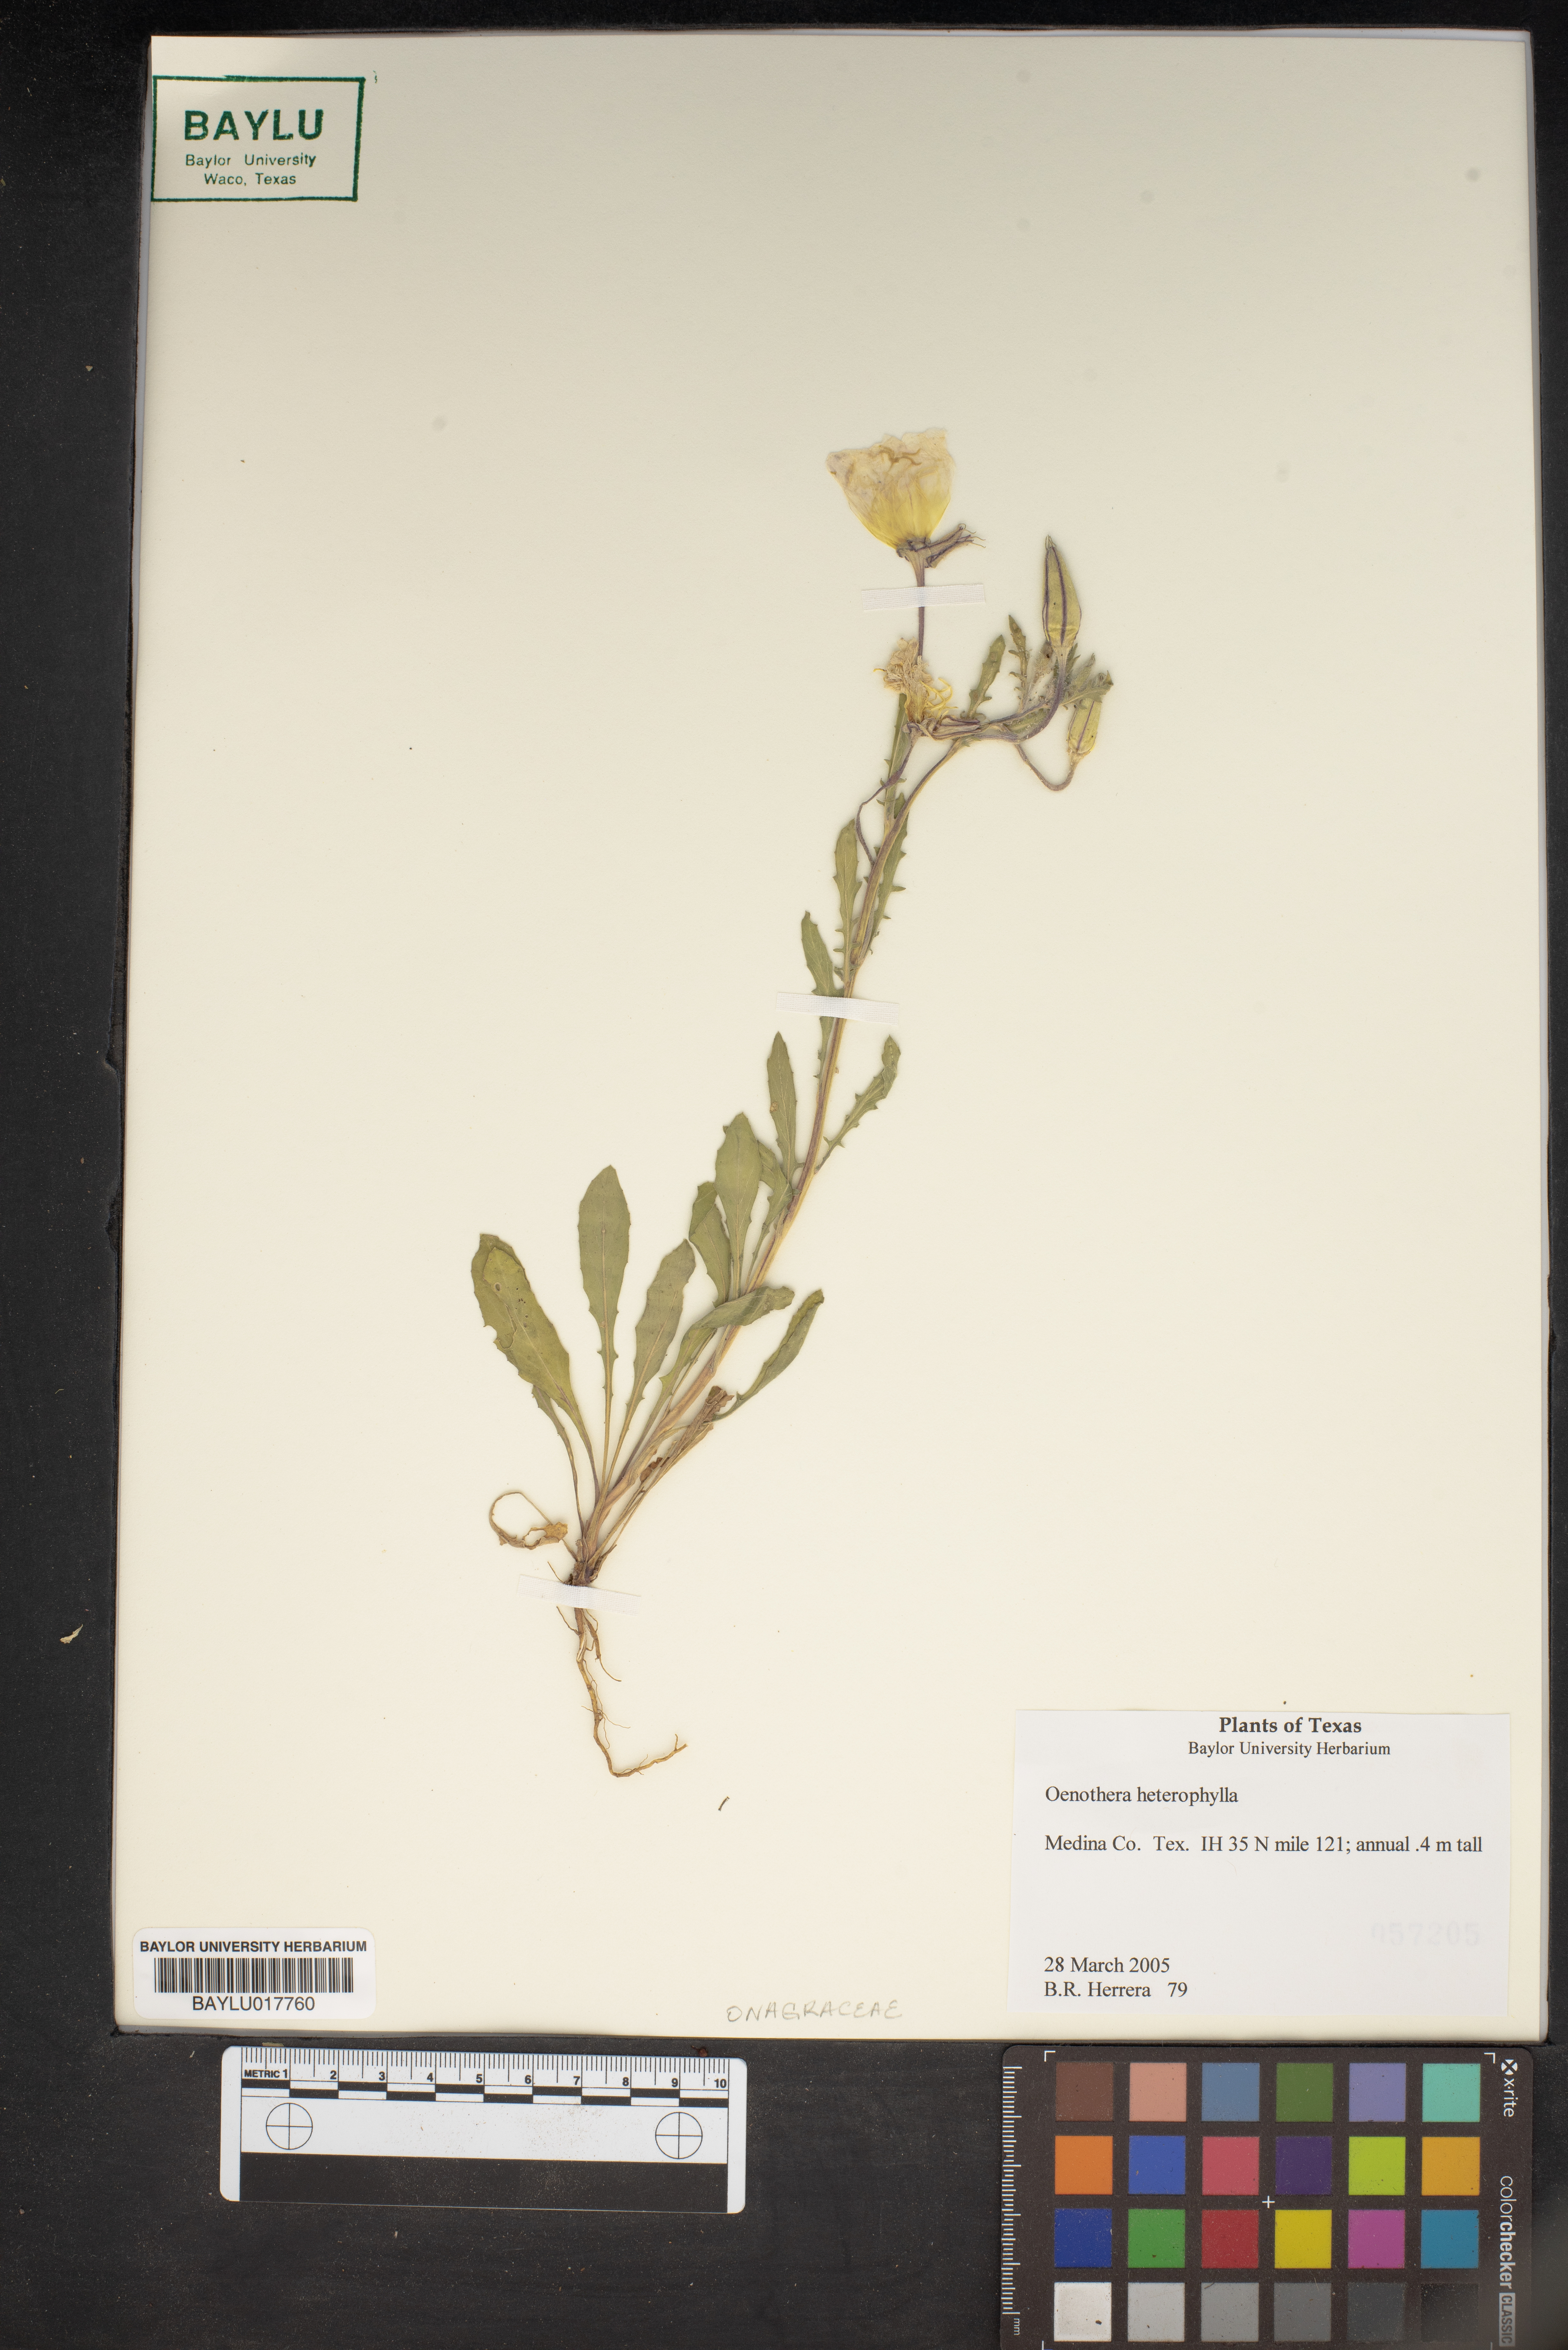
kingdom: Plantae
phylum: Tracheophyta
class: Magnoliopsida
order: Myrtales
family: Onagraceae
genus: Camissonia
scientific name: Camissonia dentata
